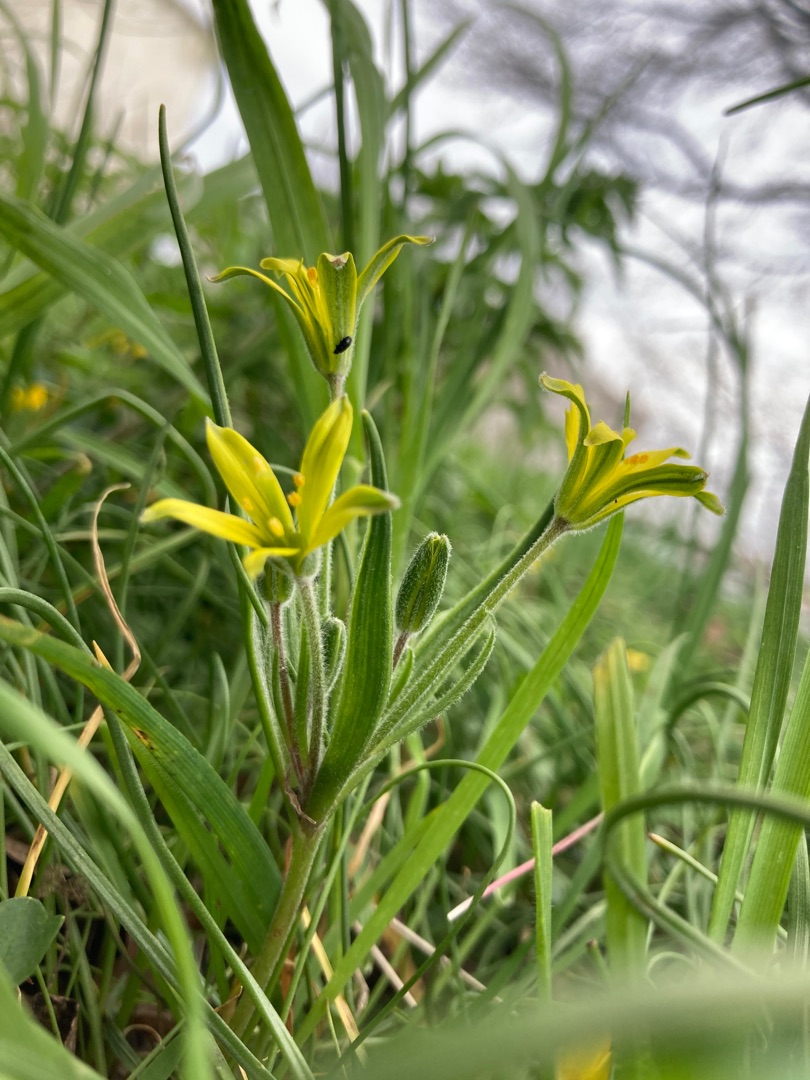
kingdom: Plantae
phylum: Tracheophyta
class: Liliopsida
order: Liliales
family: Liliaceae
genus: Gagea
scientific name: Gagea villosa
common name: Ager-guldstjerne
